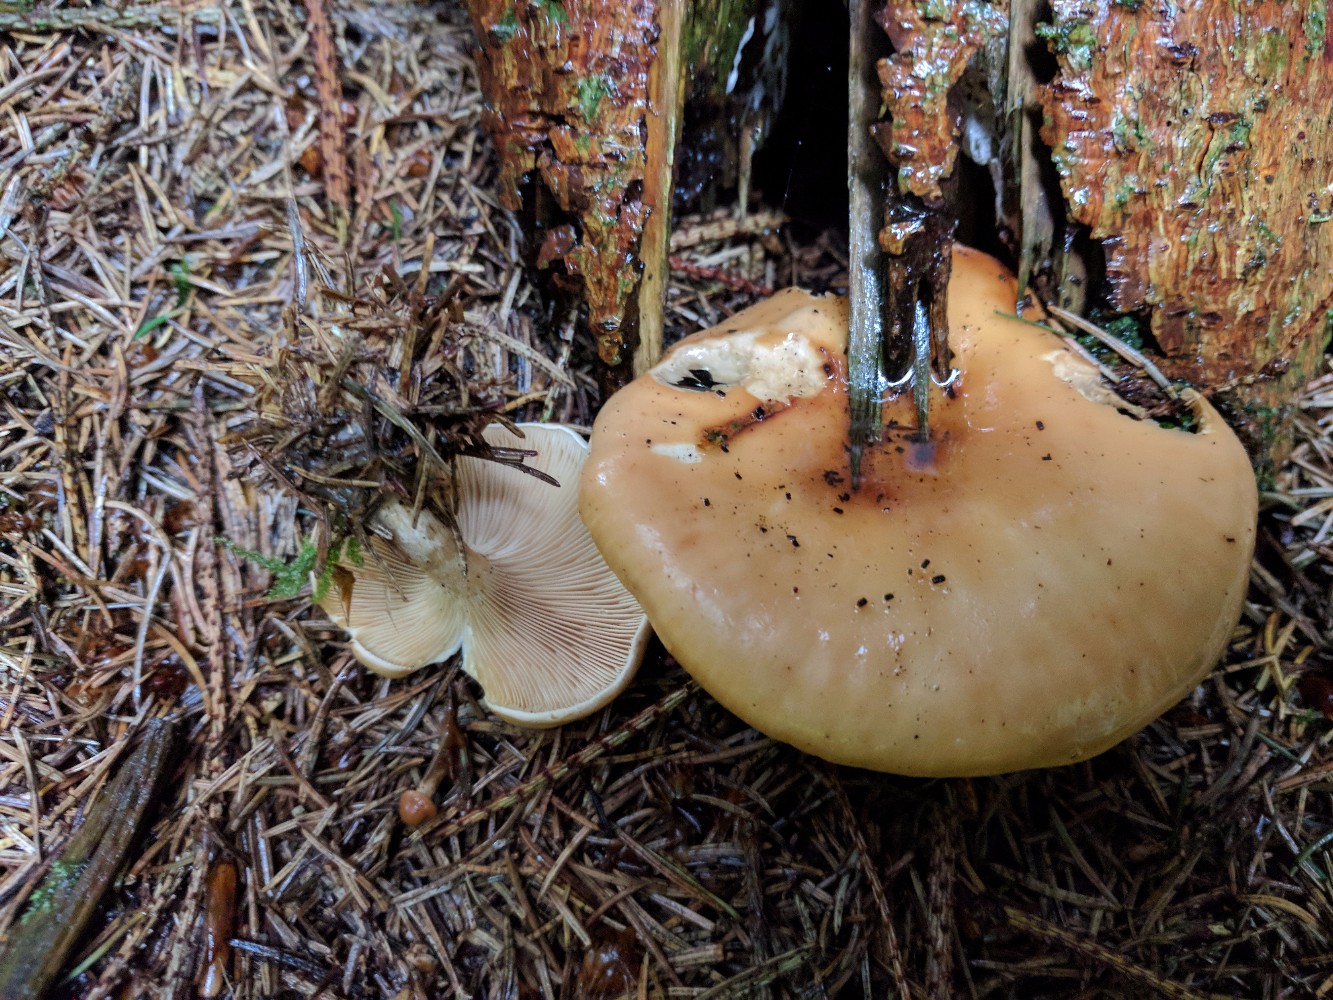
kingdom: Fungi
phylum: Basidiomycota
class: Agaricomycetes
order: Agaricales
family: Tricholomataceae
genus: Paralepista
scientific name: Paralepista flaccida
